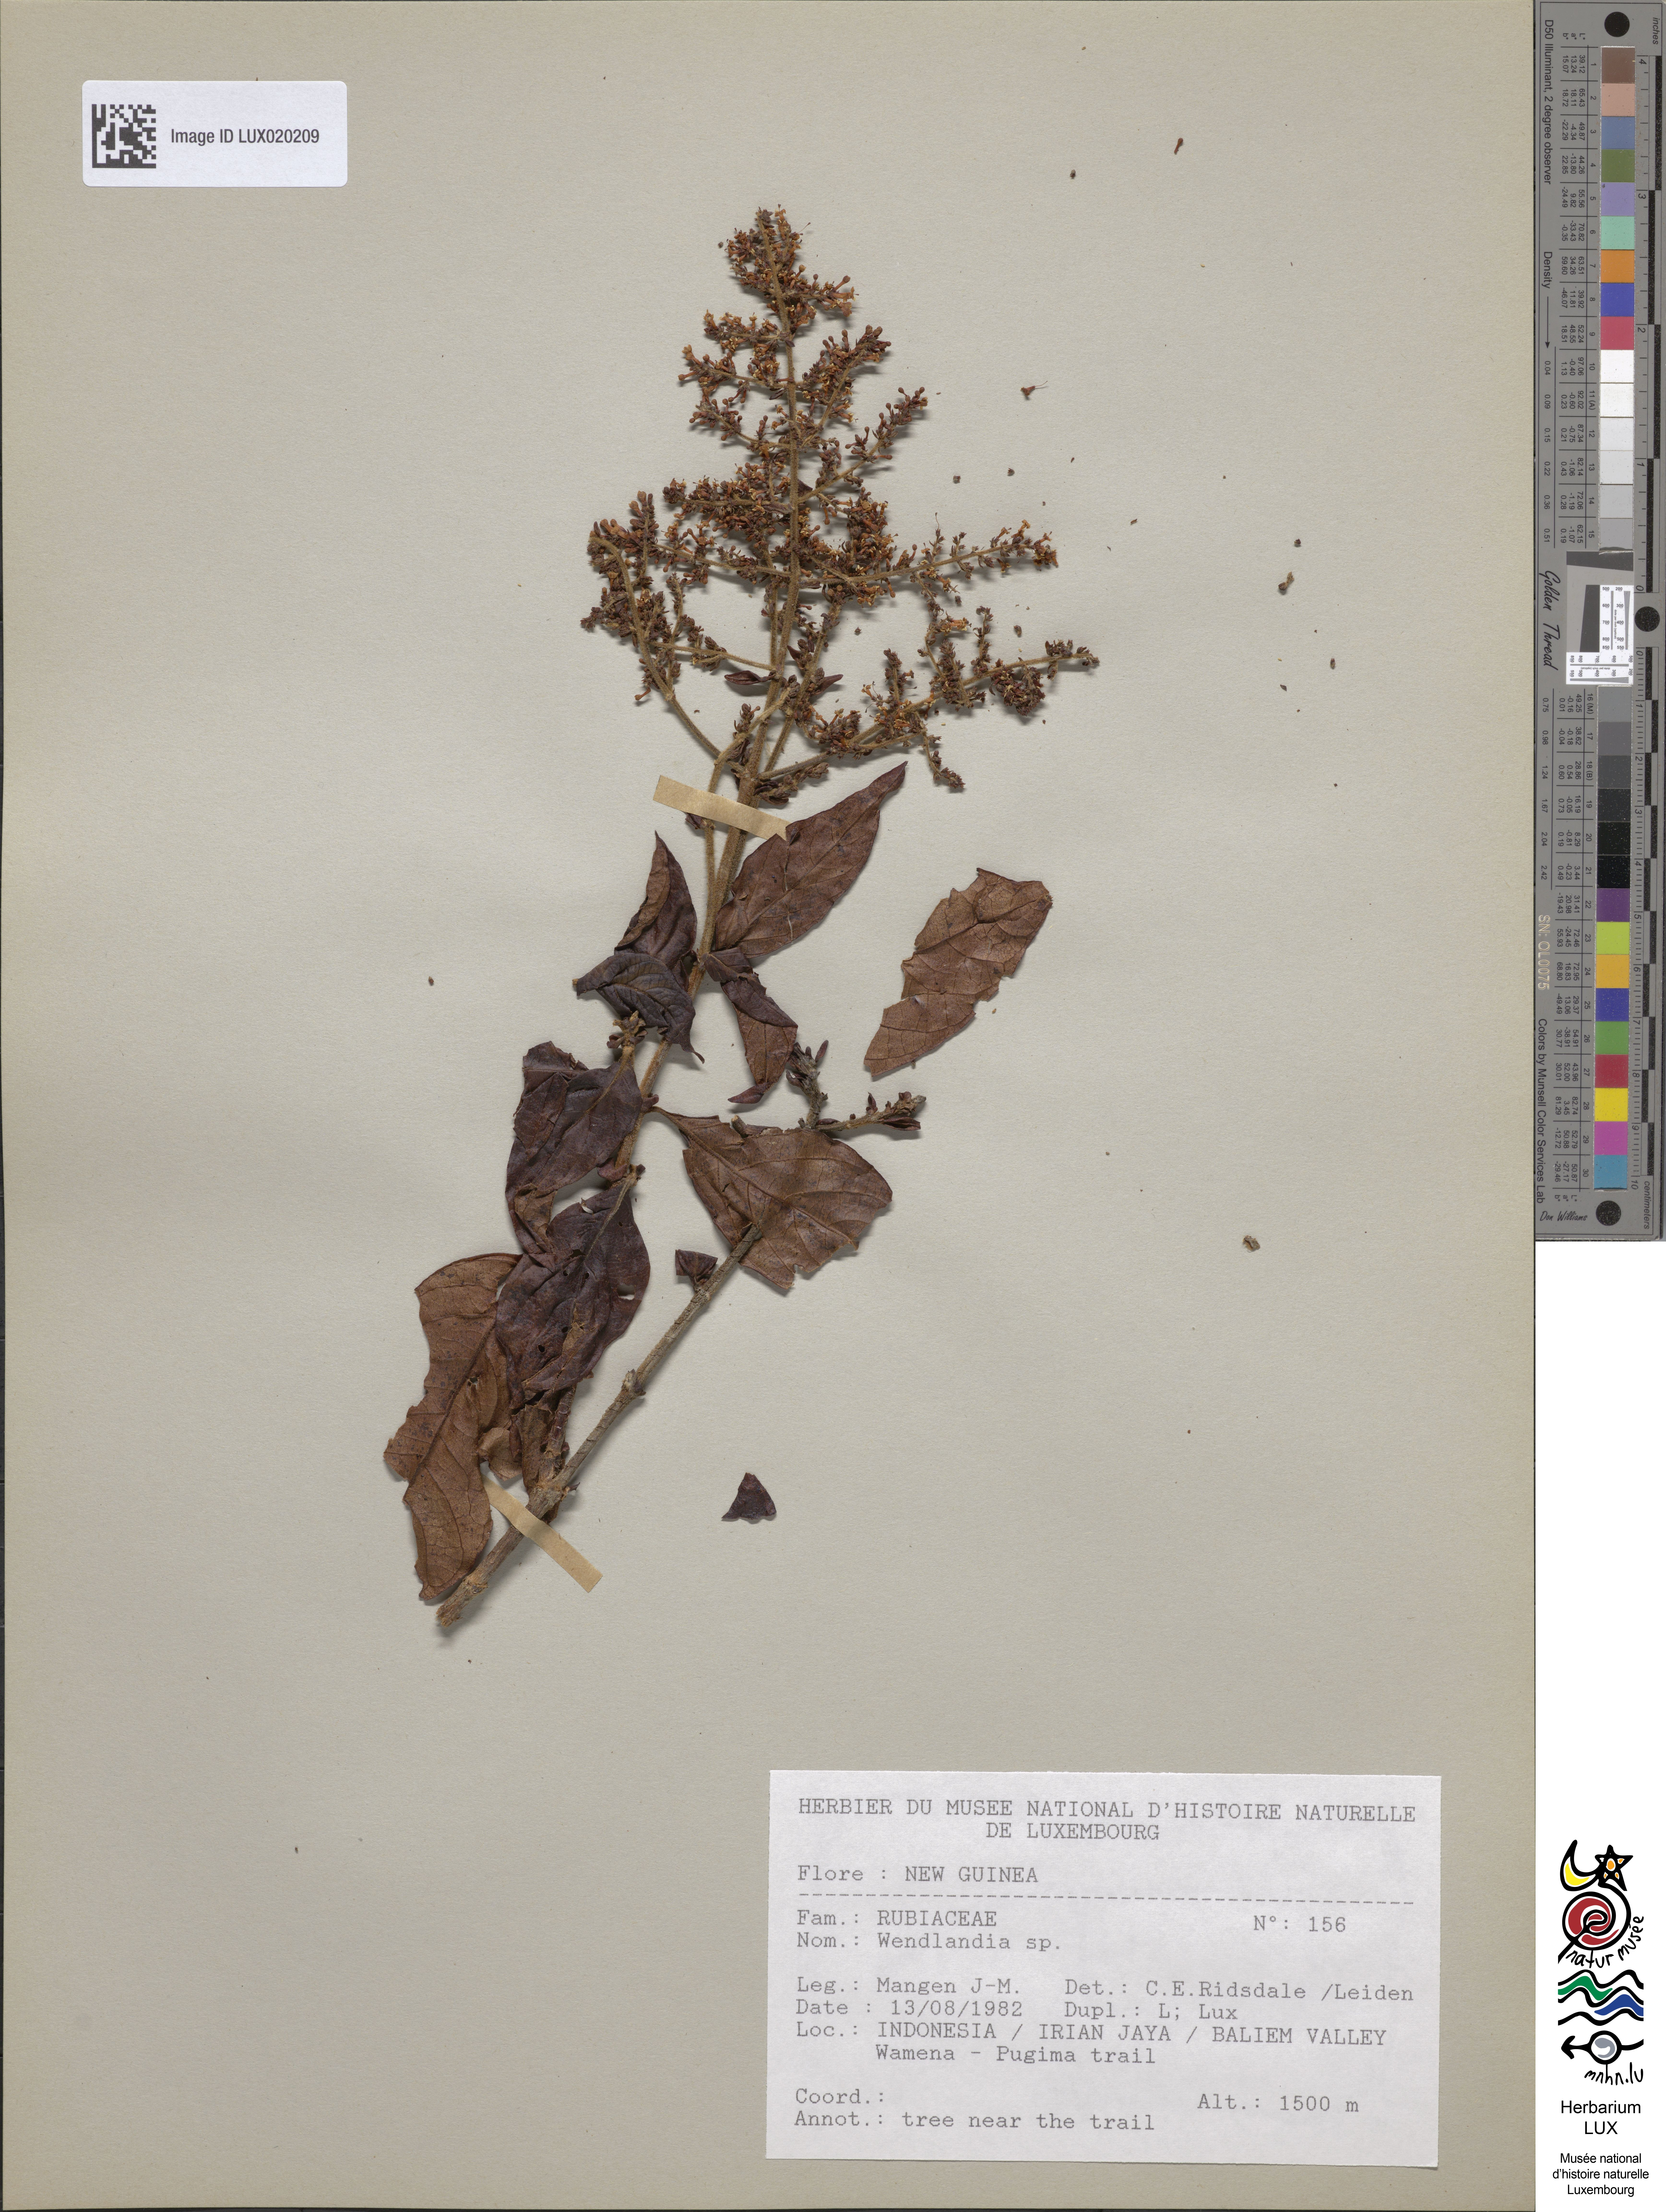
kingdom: Plantae
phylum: Tracheophyta
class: Magnoliopsida
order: Gentianales
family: Rubiaceae
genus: Wendlandia
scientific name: Wendlandia
